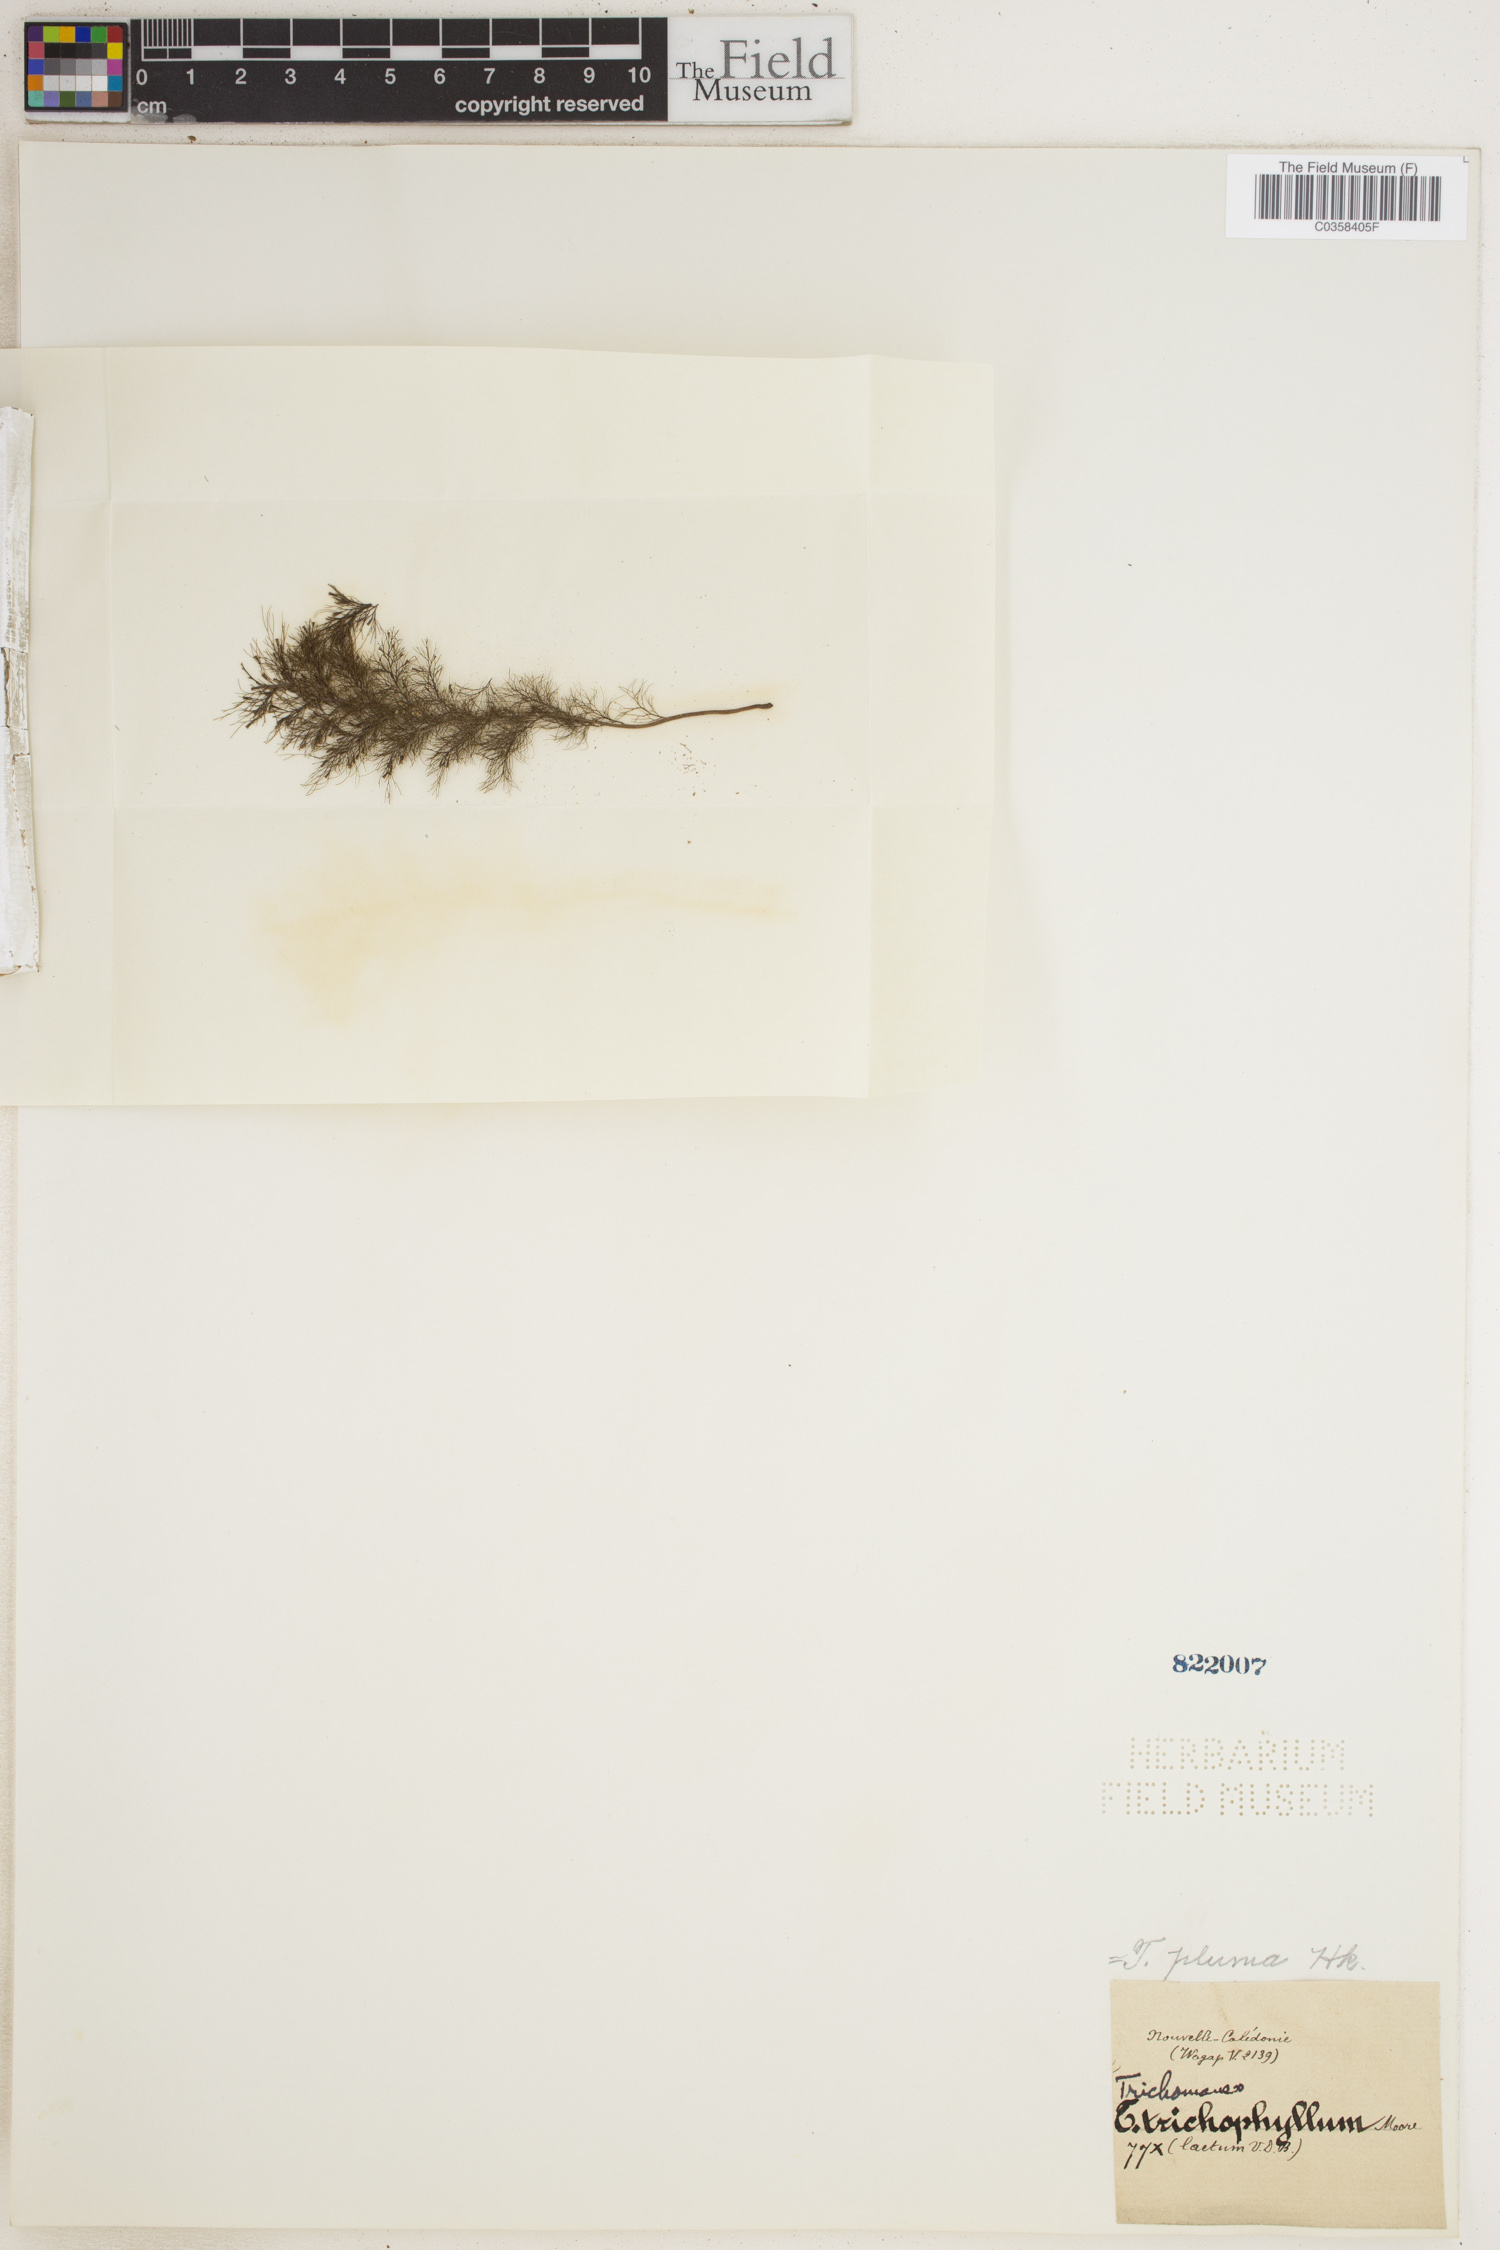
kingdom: Plantae
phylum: Tracheophyta
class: Polypodiopsida
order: Hymenophyllales
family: Hymenophyllaceae
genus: Abrodictyum
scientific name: Abrodictyum pluma
